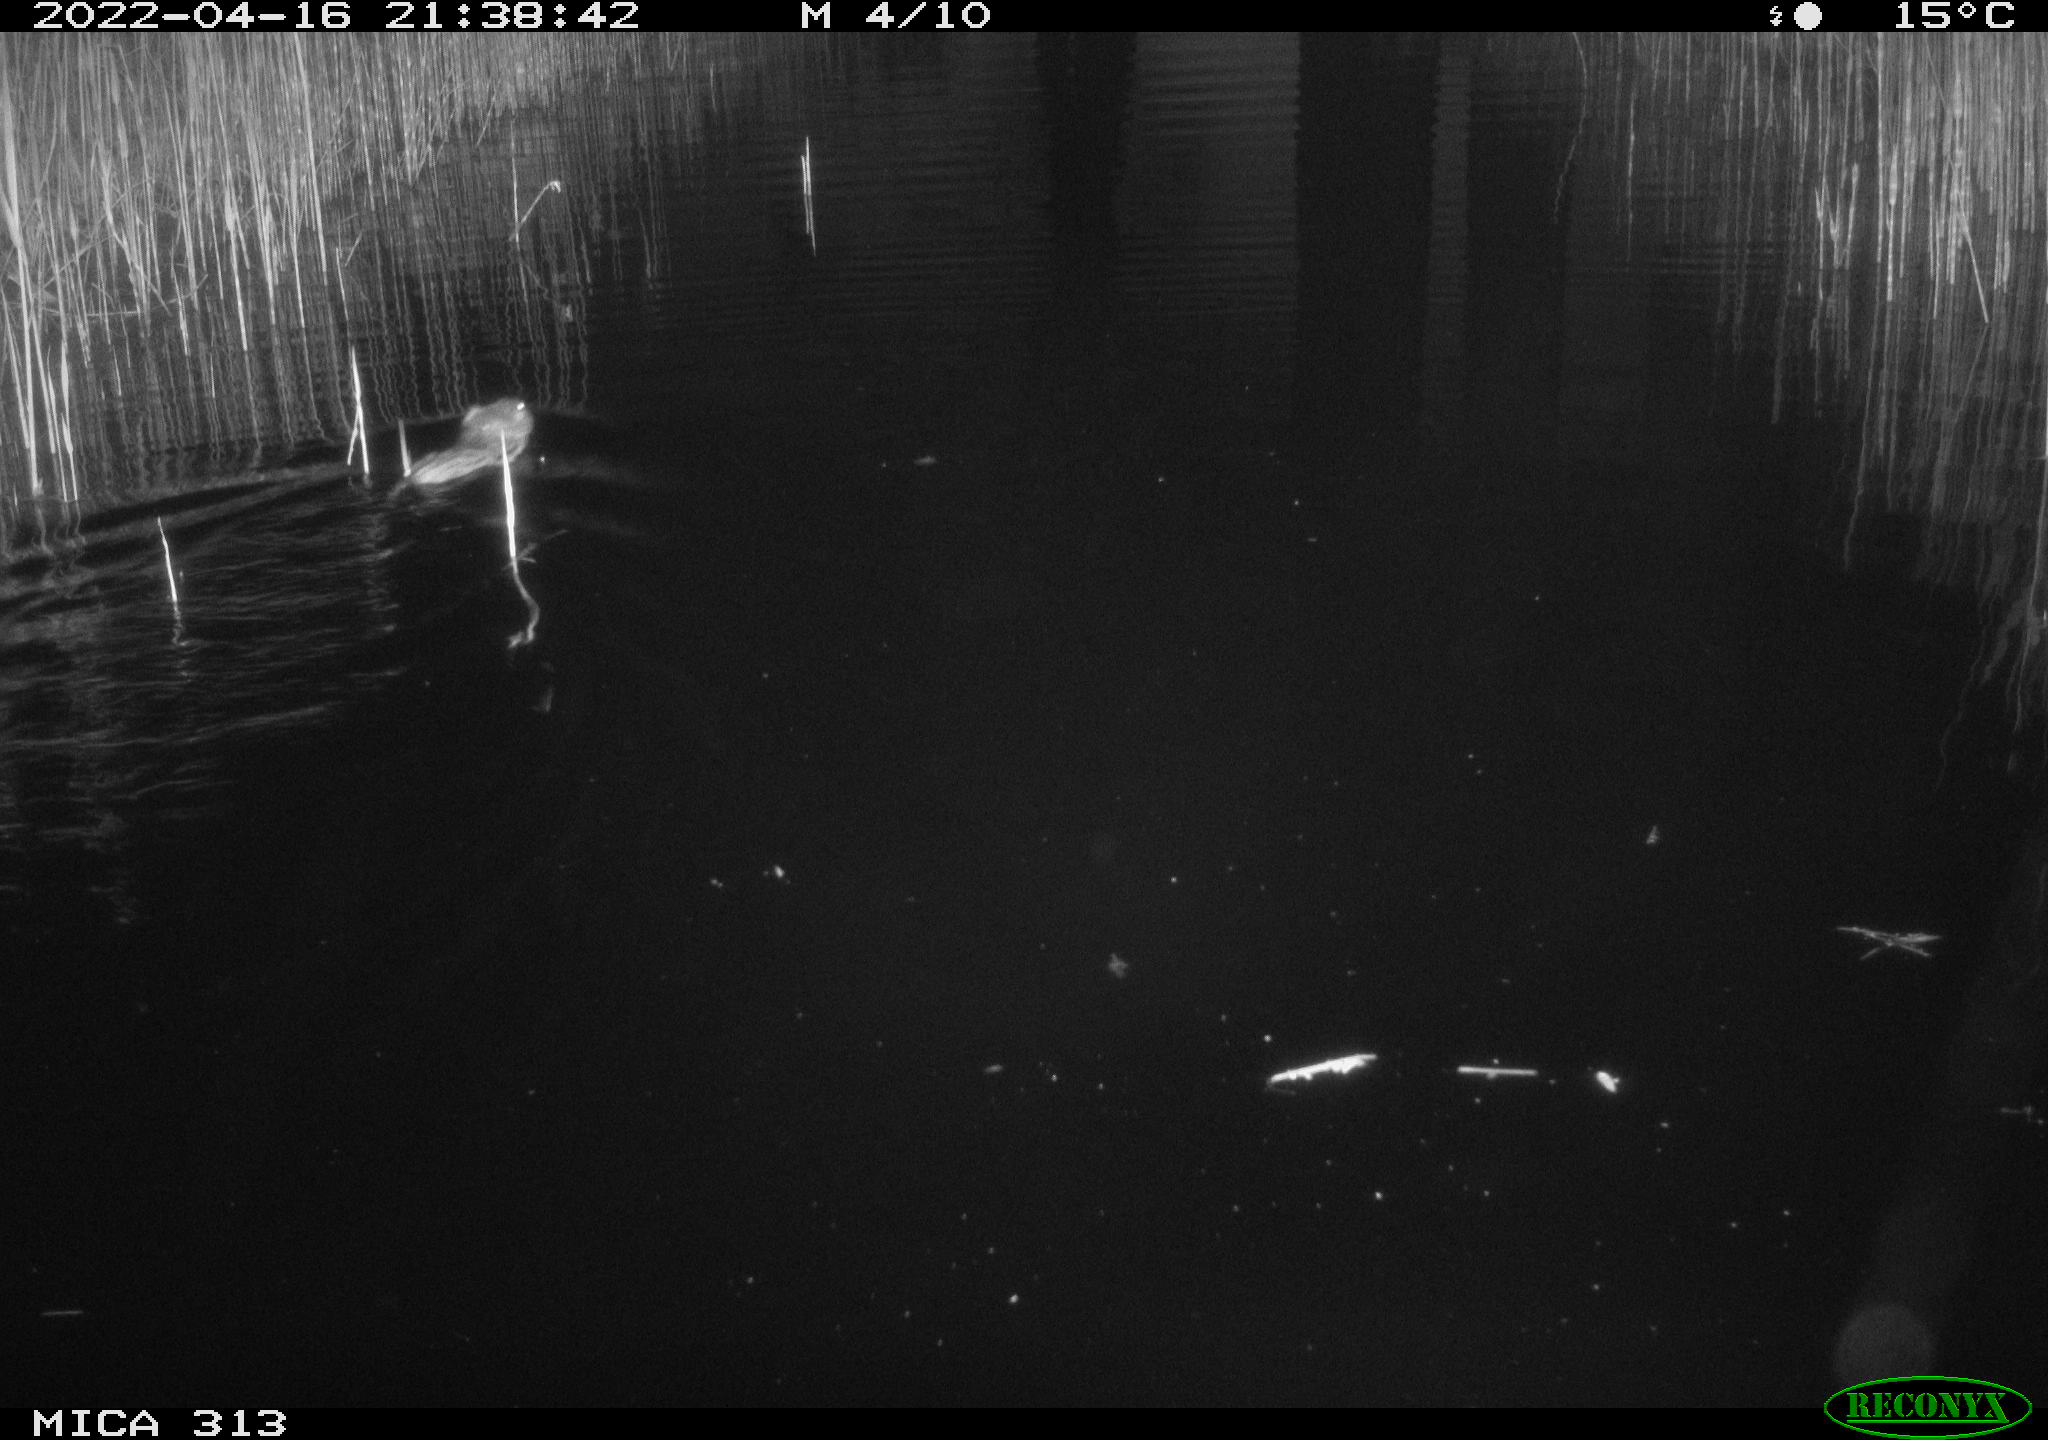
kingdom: Animalia
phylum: Chordata
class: Mammalia
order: Rodentia
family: Cricetidae
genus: Ondatra
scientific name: Ondatra zibethicus
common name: Muskrat
